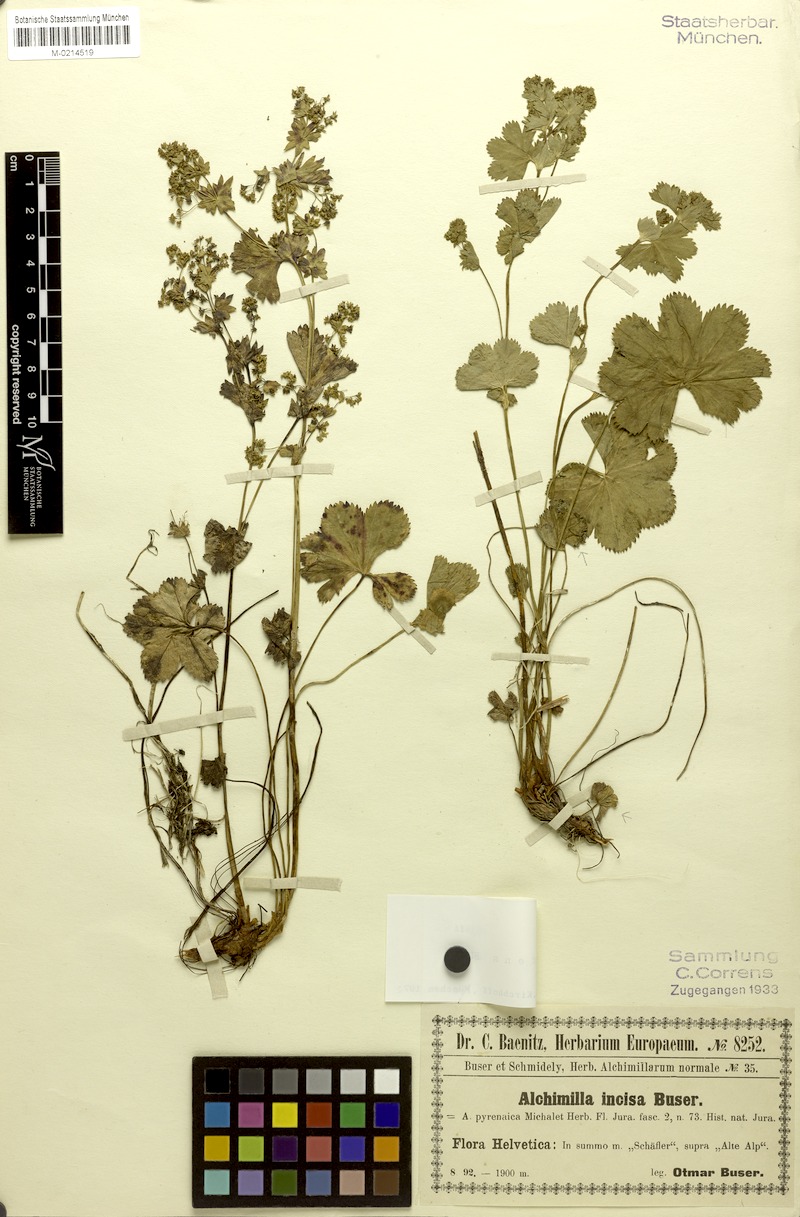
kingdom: Plantae
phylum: Tracheophyta
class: Magnoliopsida
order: Rosales
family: Rosaceae
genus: Alchemilla
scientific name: Alchemilla sericoneura
